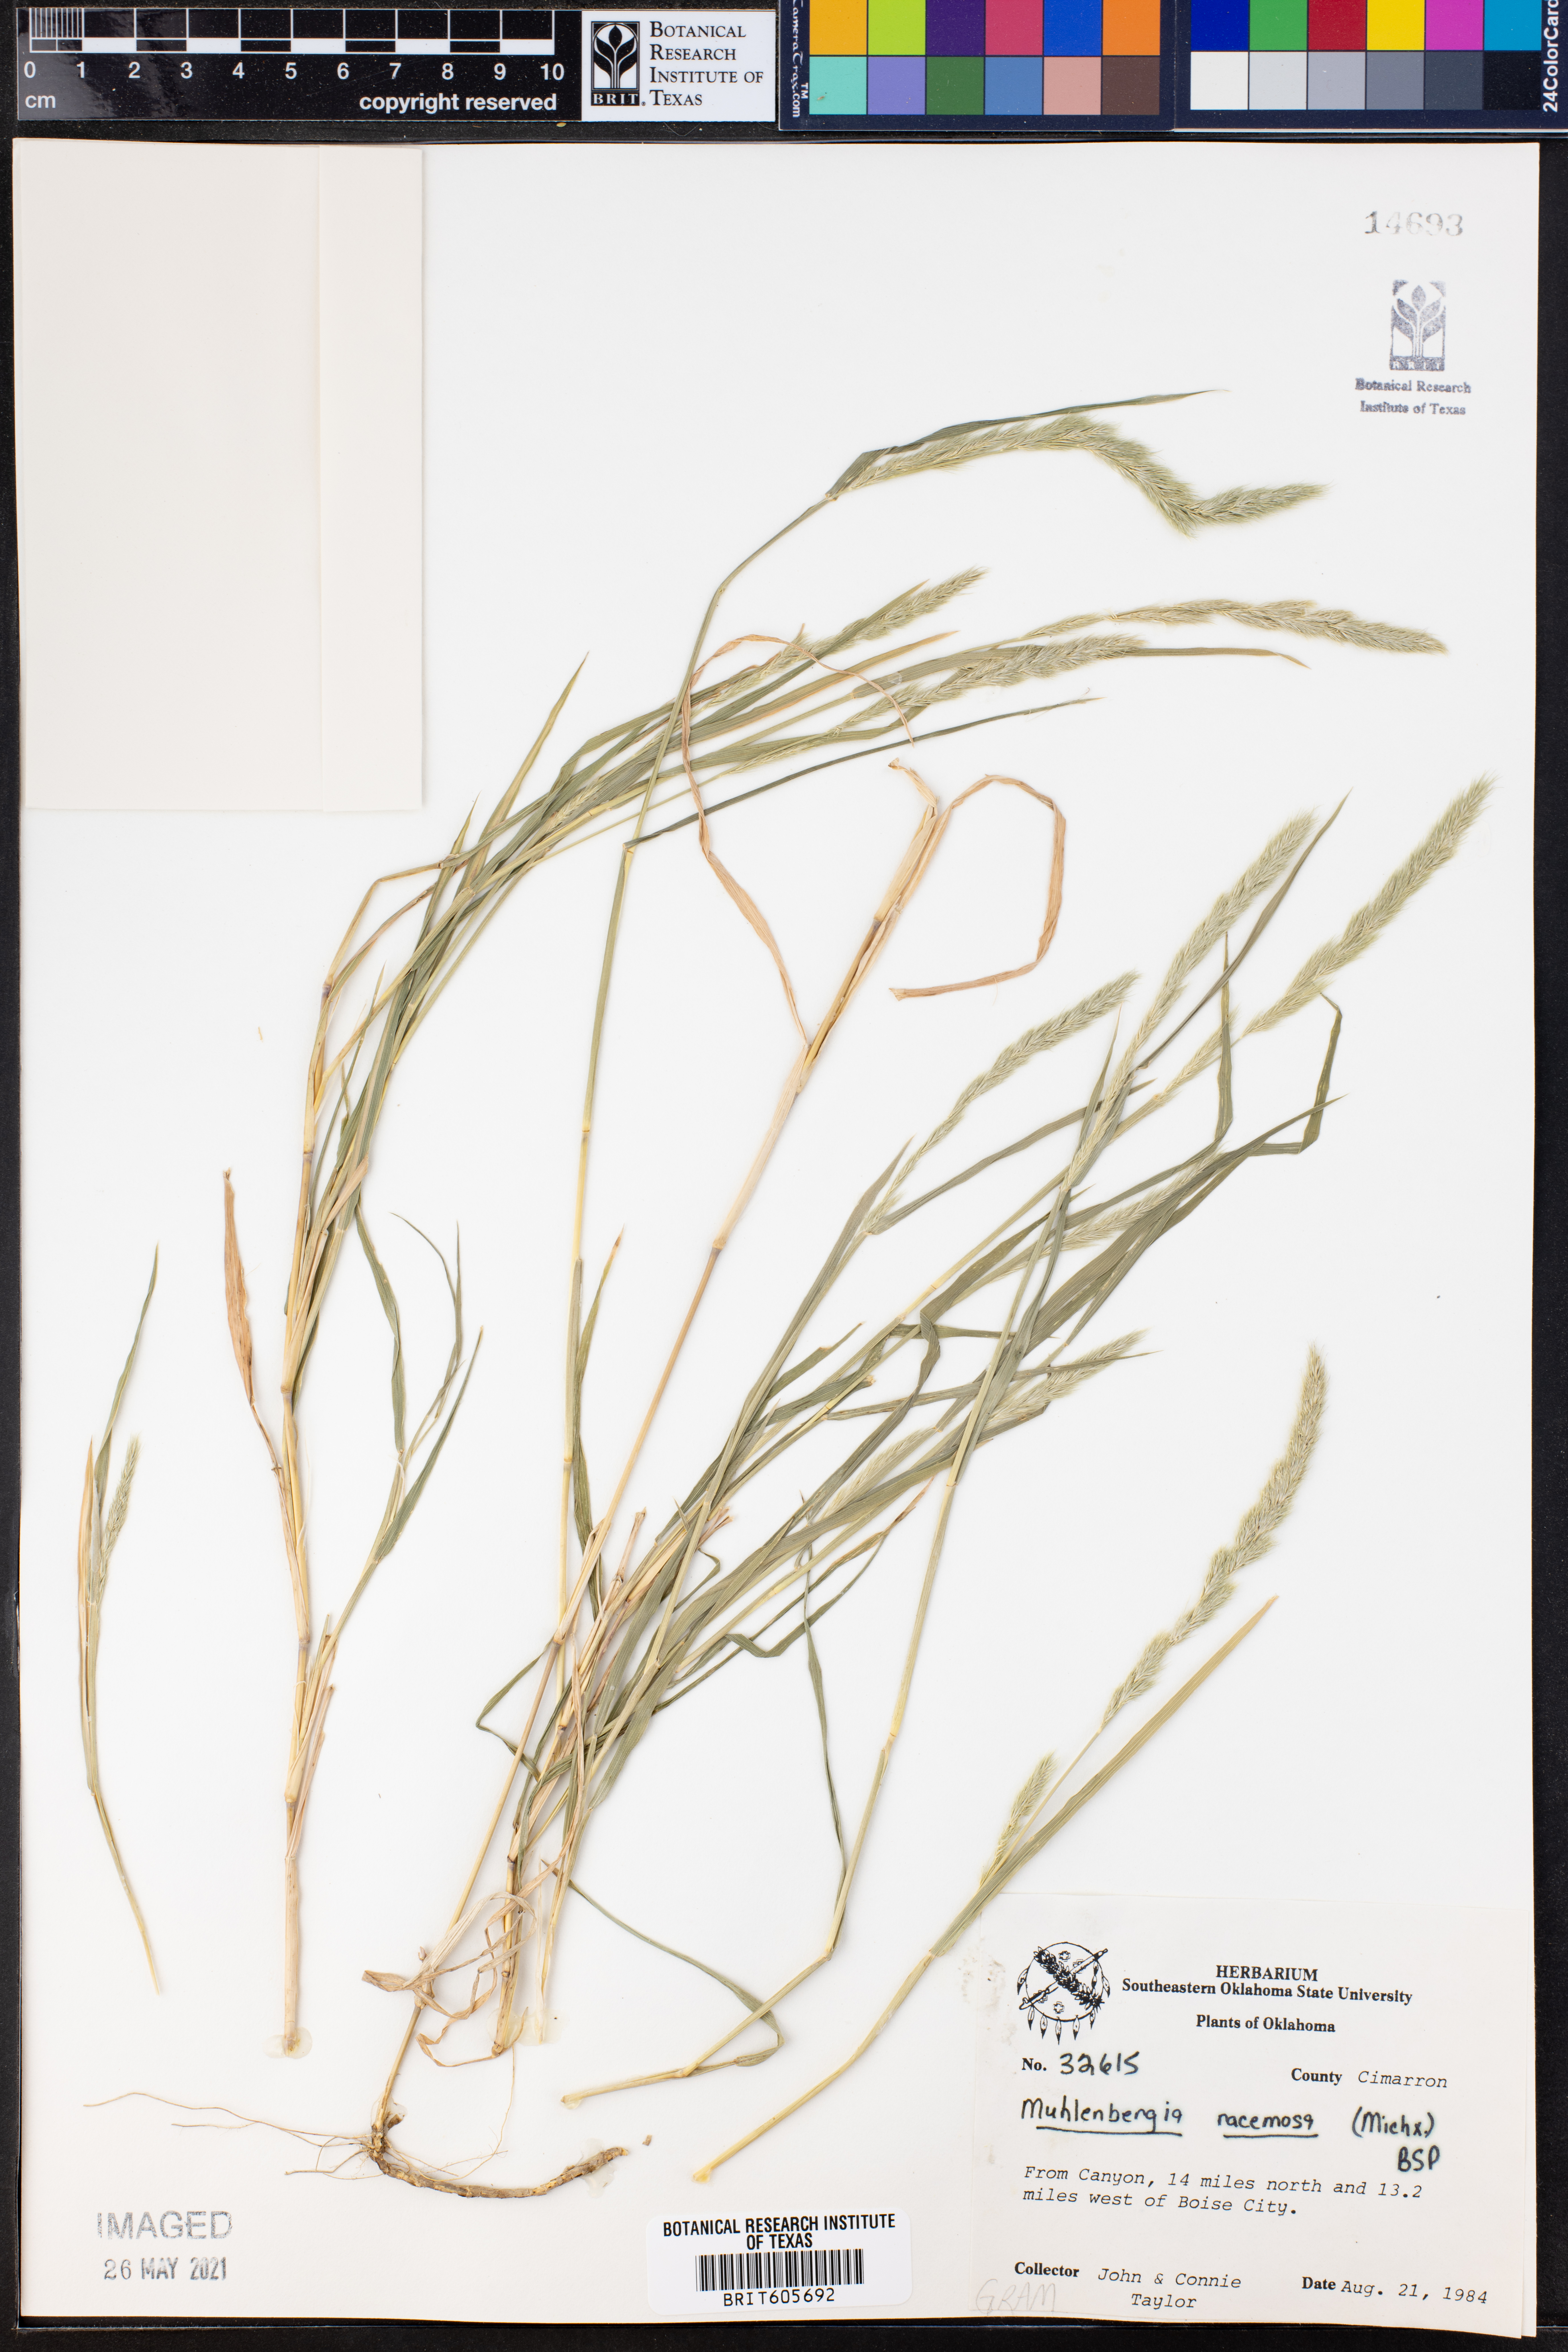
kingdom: Plantae
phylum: Tracheophyta
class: Liliopsida
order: Poales
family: Poaceae
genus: Muhlenbergia
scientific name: Muhlenbergia racemosa
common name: Green muhly
